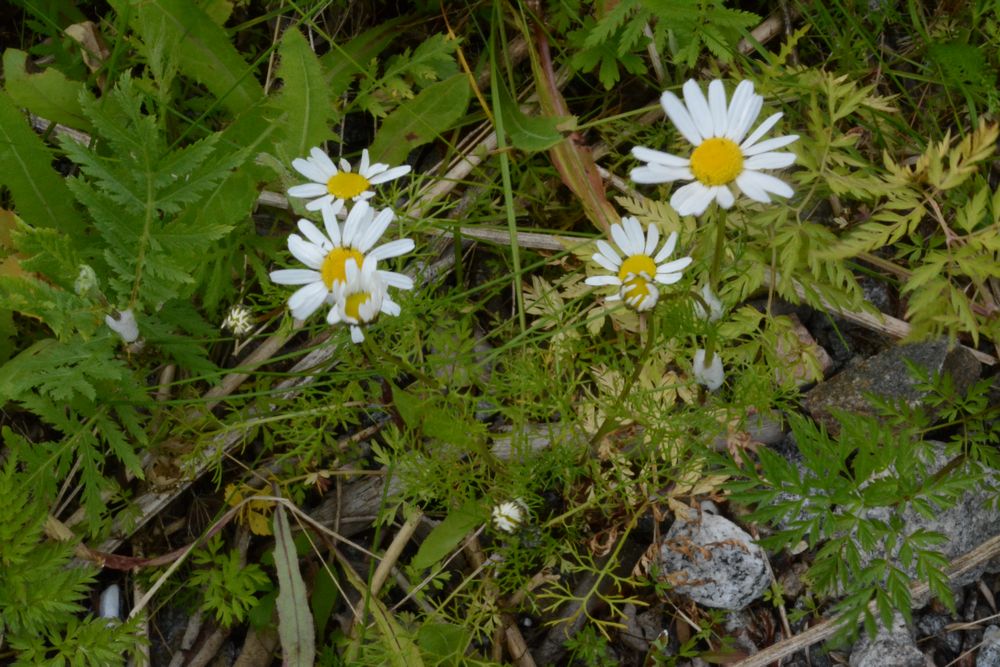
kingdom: Plantae
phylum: Tracheophyta
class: Magnoliopsida
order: Asterales
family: Asteraceae
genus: Tripleurospermum
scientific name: Tripleurospermum maritimum
